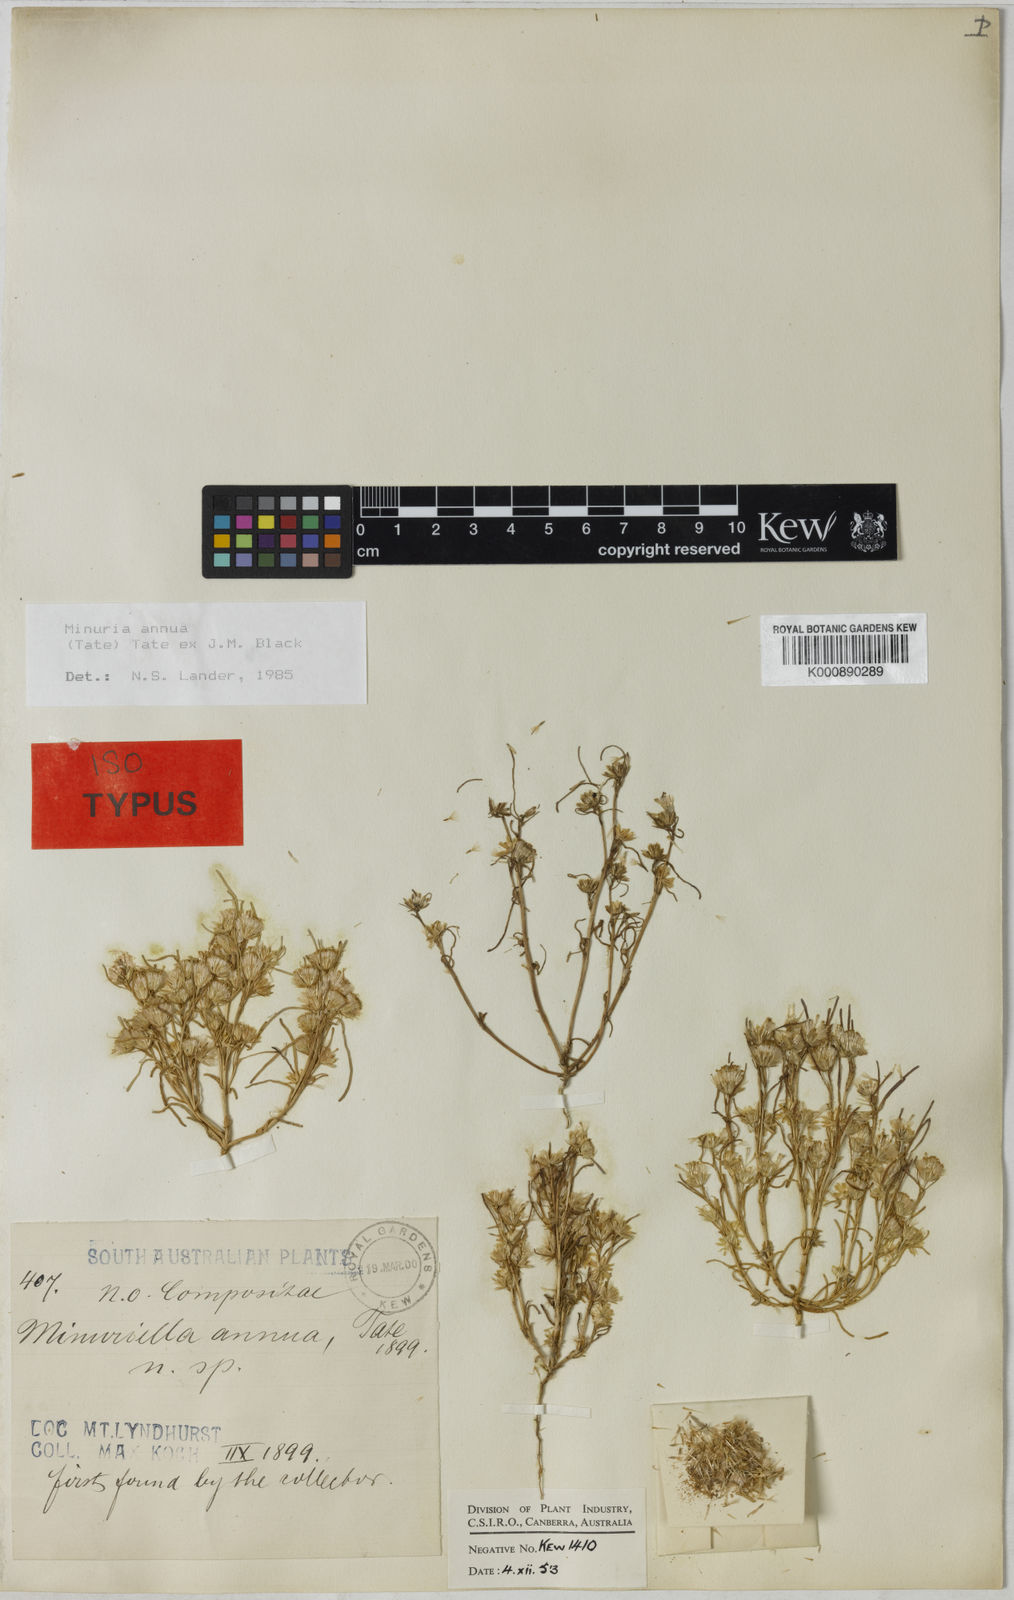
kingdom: Plantae
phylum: Tracheophyta
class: Magnoliopsida
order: Asterales
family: Asteraceae
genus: Minuria
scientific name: Minuria annua
